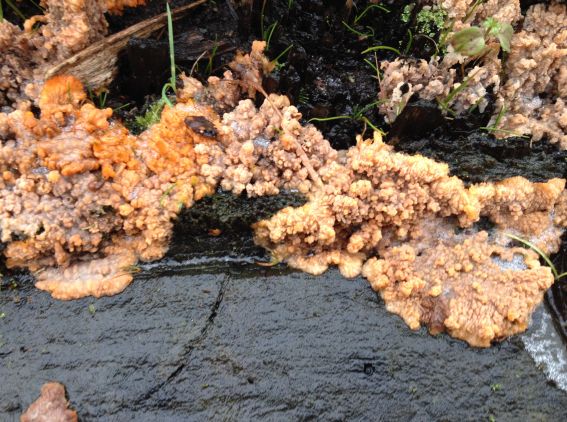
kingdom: Fungi
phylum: Basidiomycota
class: Agaricomycetes
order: Polyporales
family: Meruliaceae
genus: Phlebia
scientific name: Phlebia radiata
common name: stråle-åresvamp
